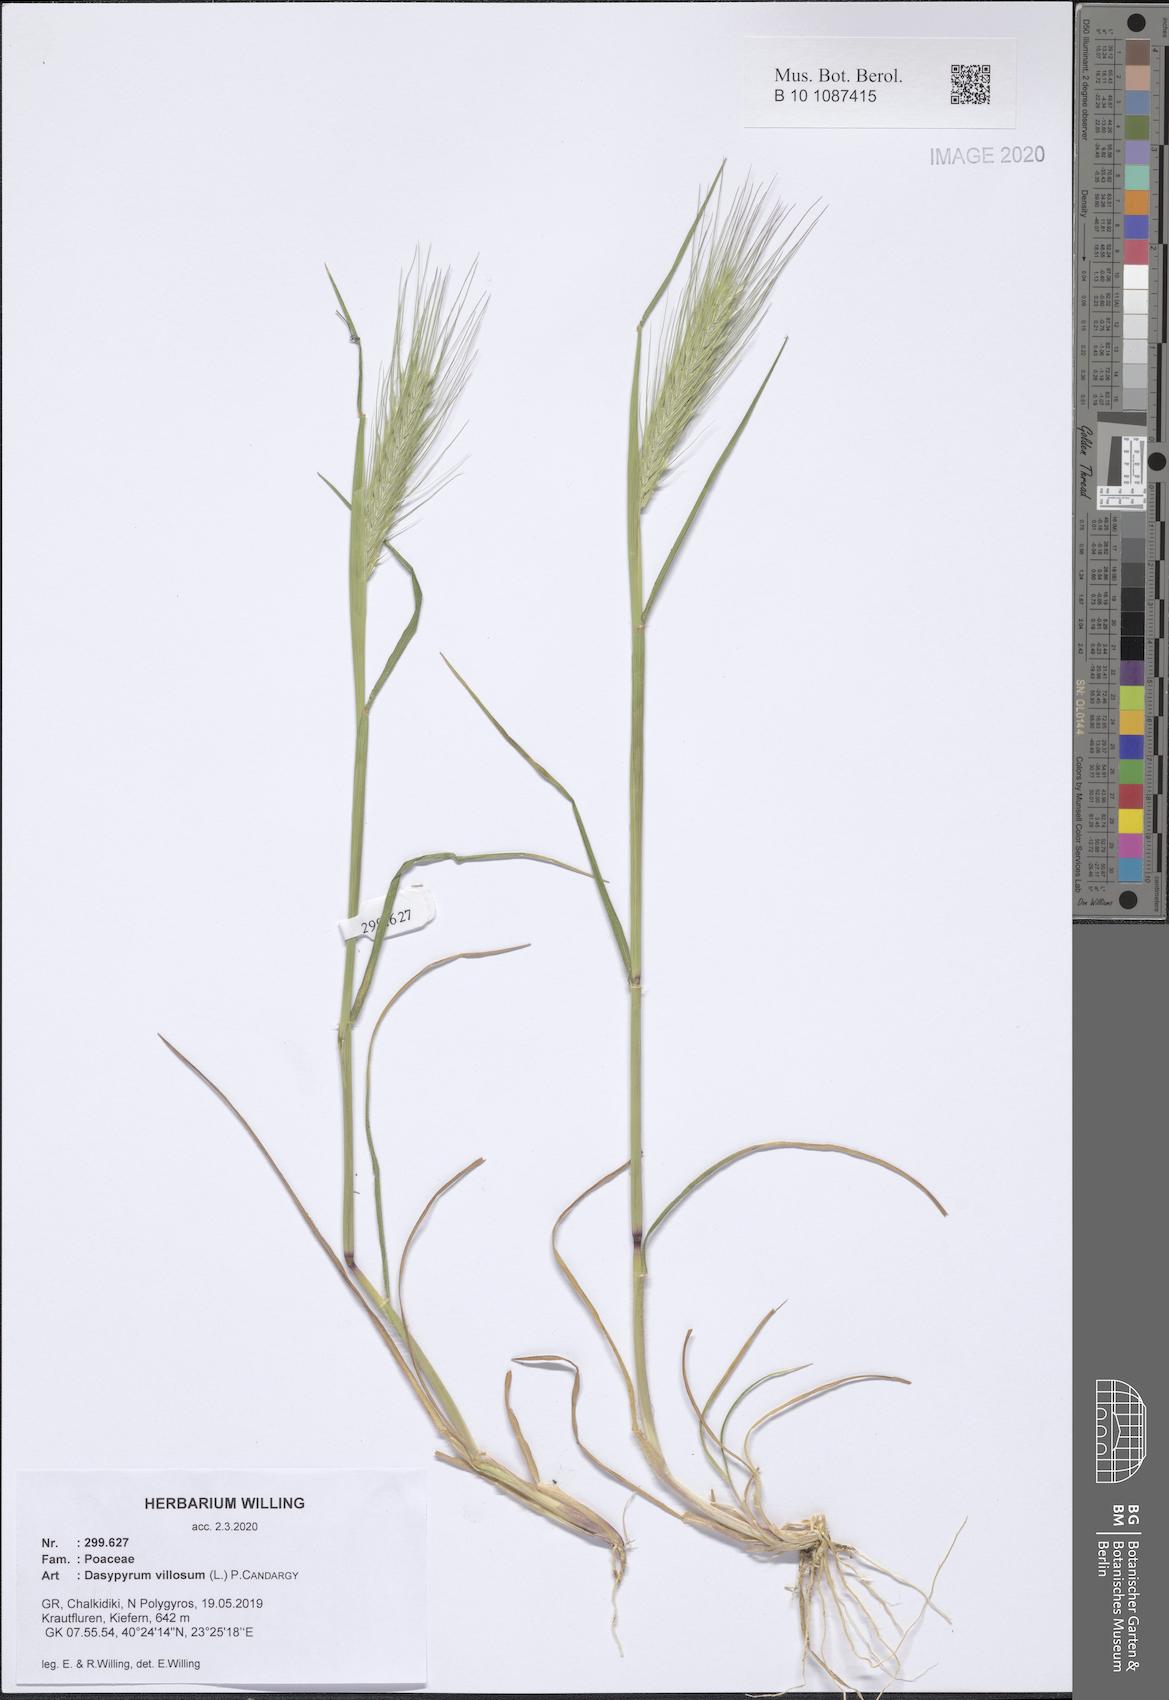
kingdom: Plantae
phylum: Tracheophyta
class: Liliopsida
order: Poales
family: Poaceae
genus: Dasypyrum
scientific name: Dasypyrum villosum
